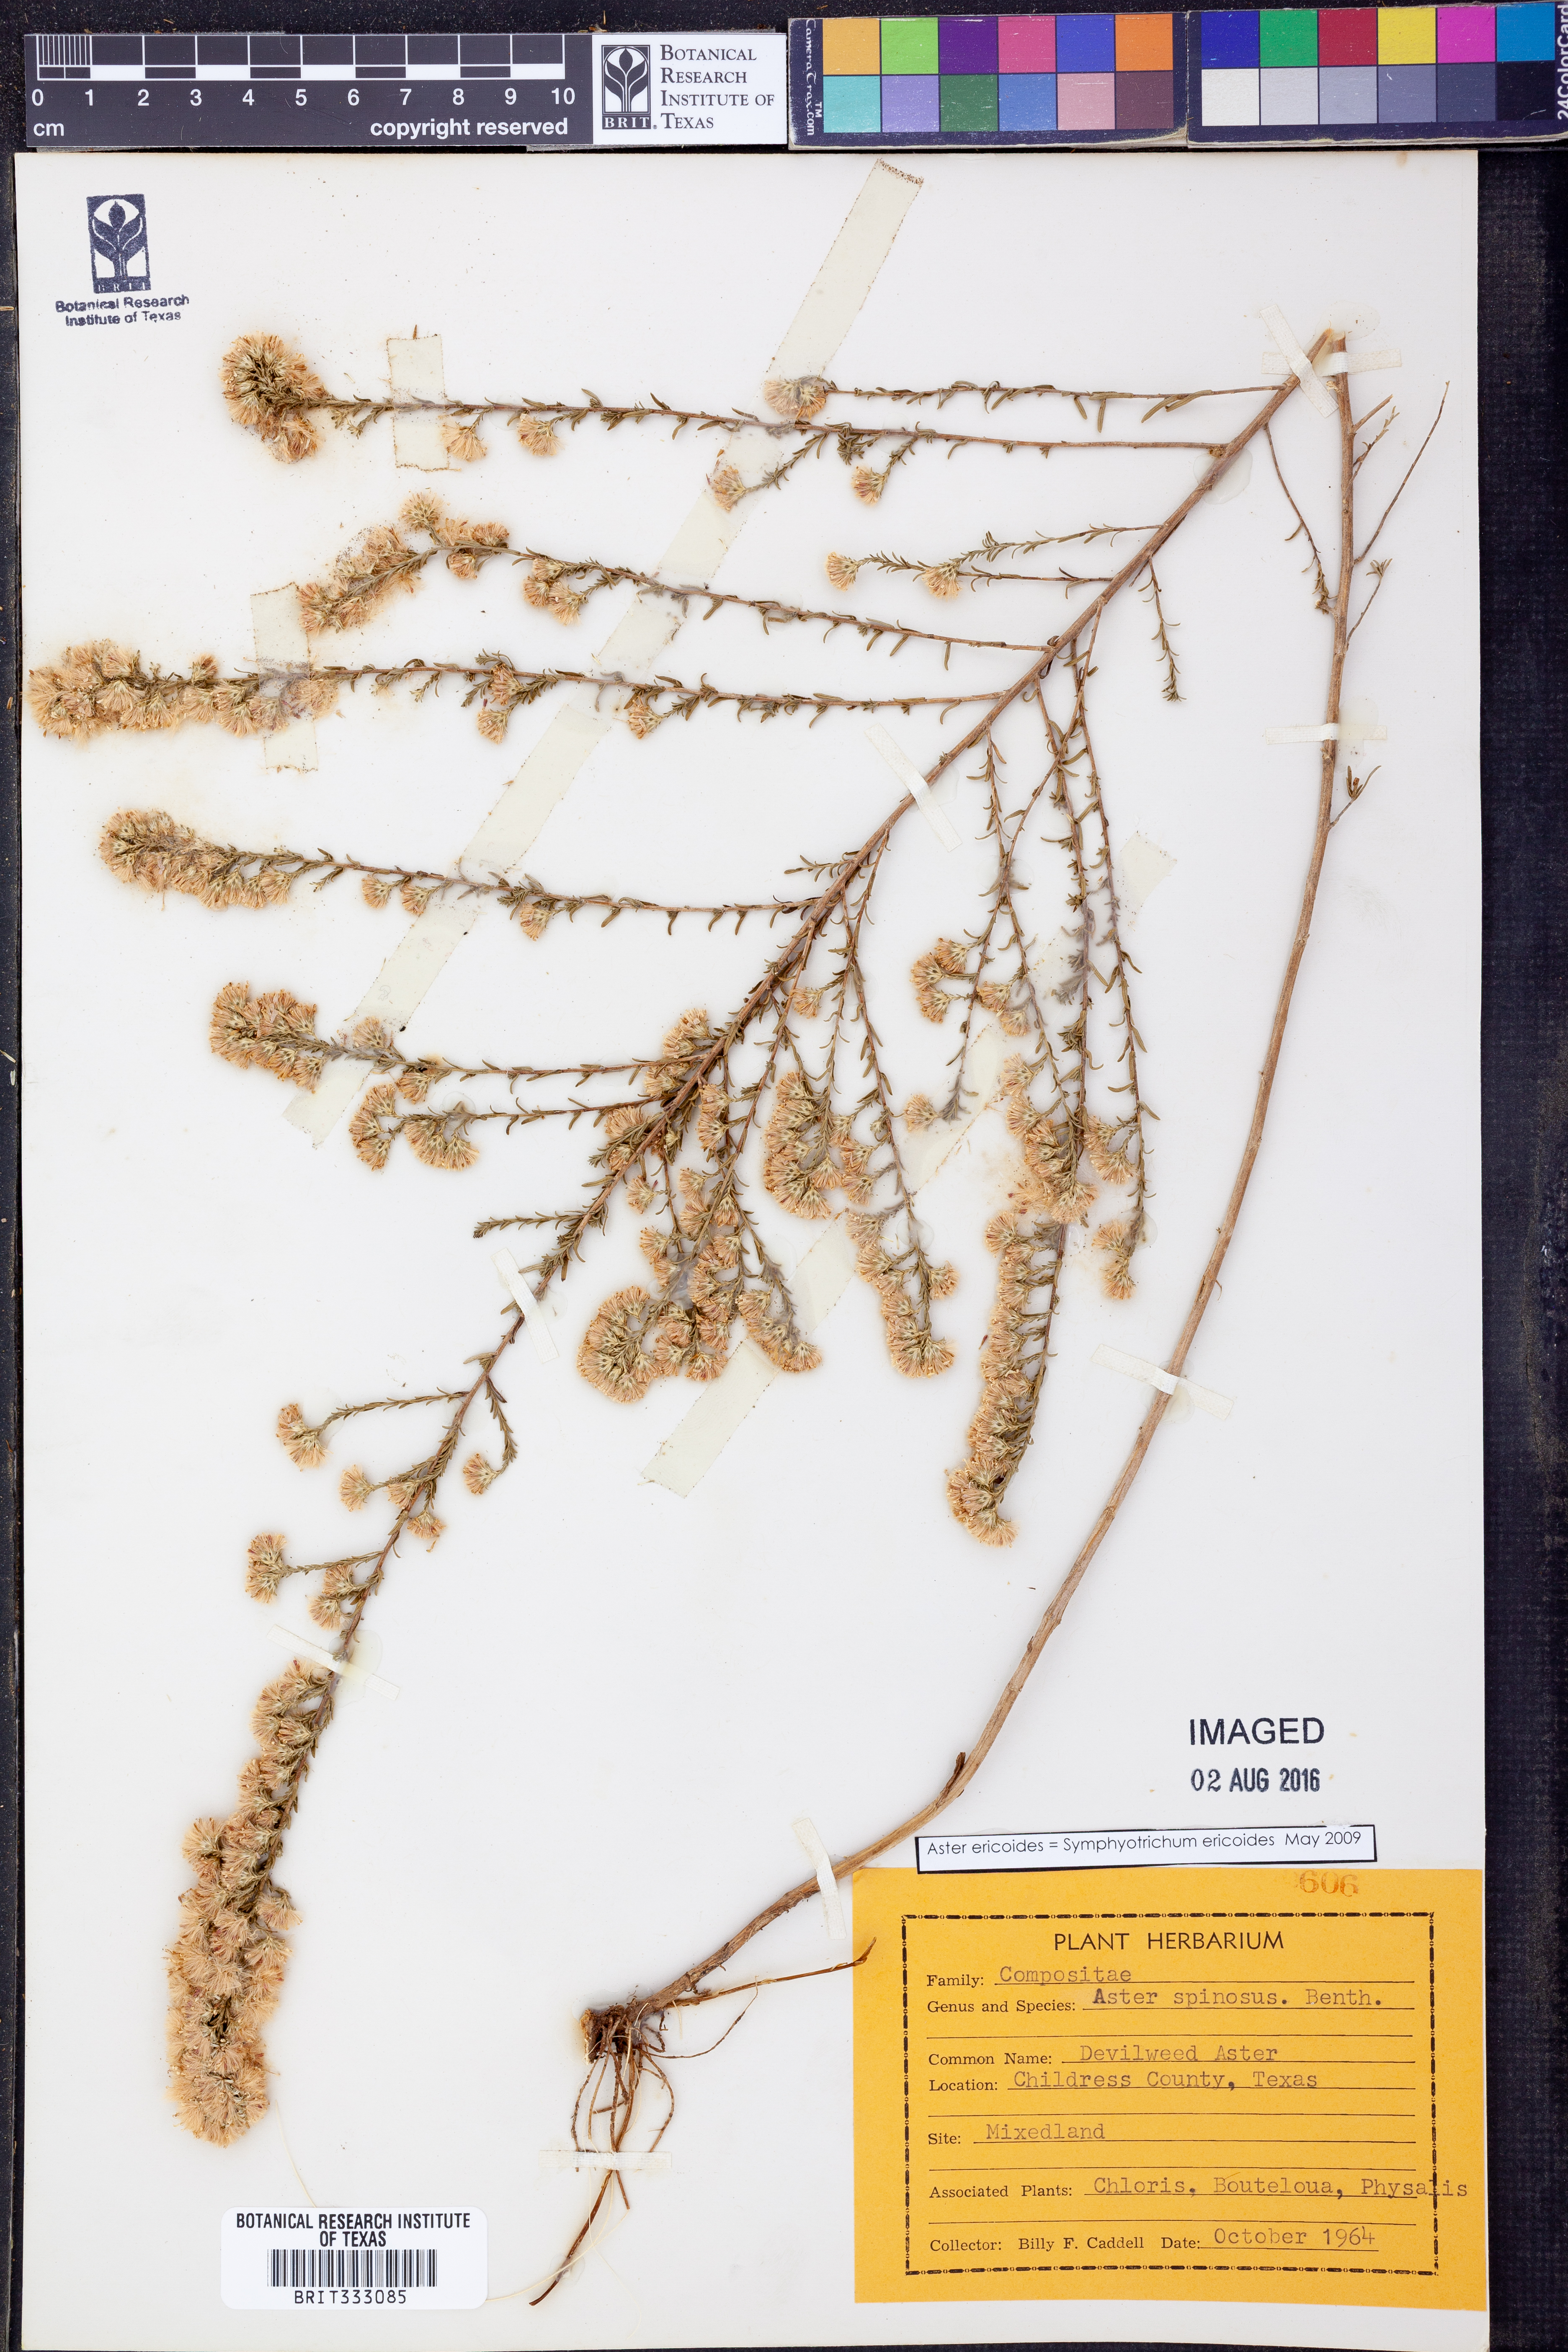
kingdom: Plantae
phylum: Tracheophyta
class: Magnoliopsida
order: Asterales
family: Asteraceae
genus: Symphyotrichum
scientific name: Symphyotrichum ericoides
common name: Heath aster
